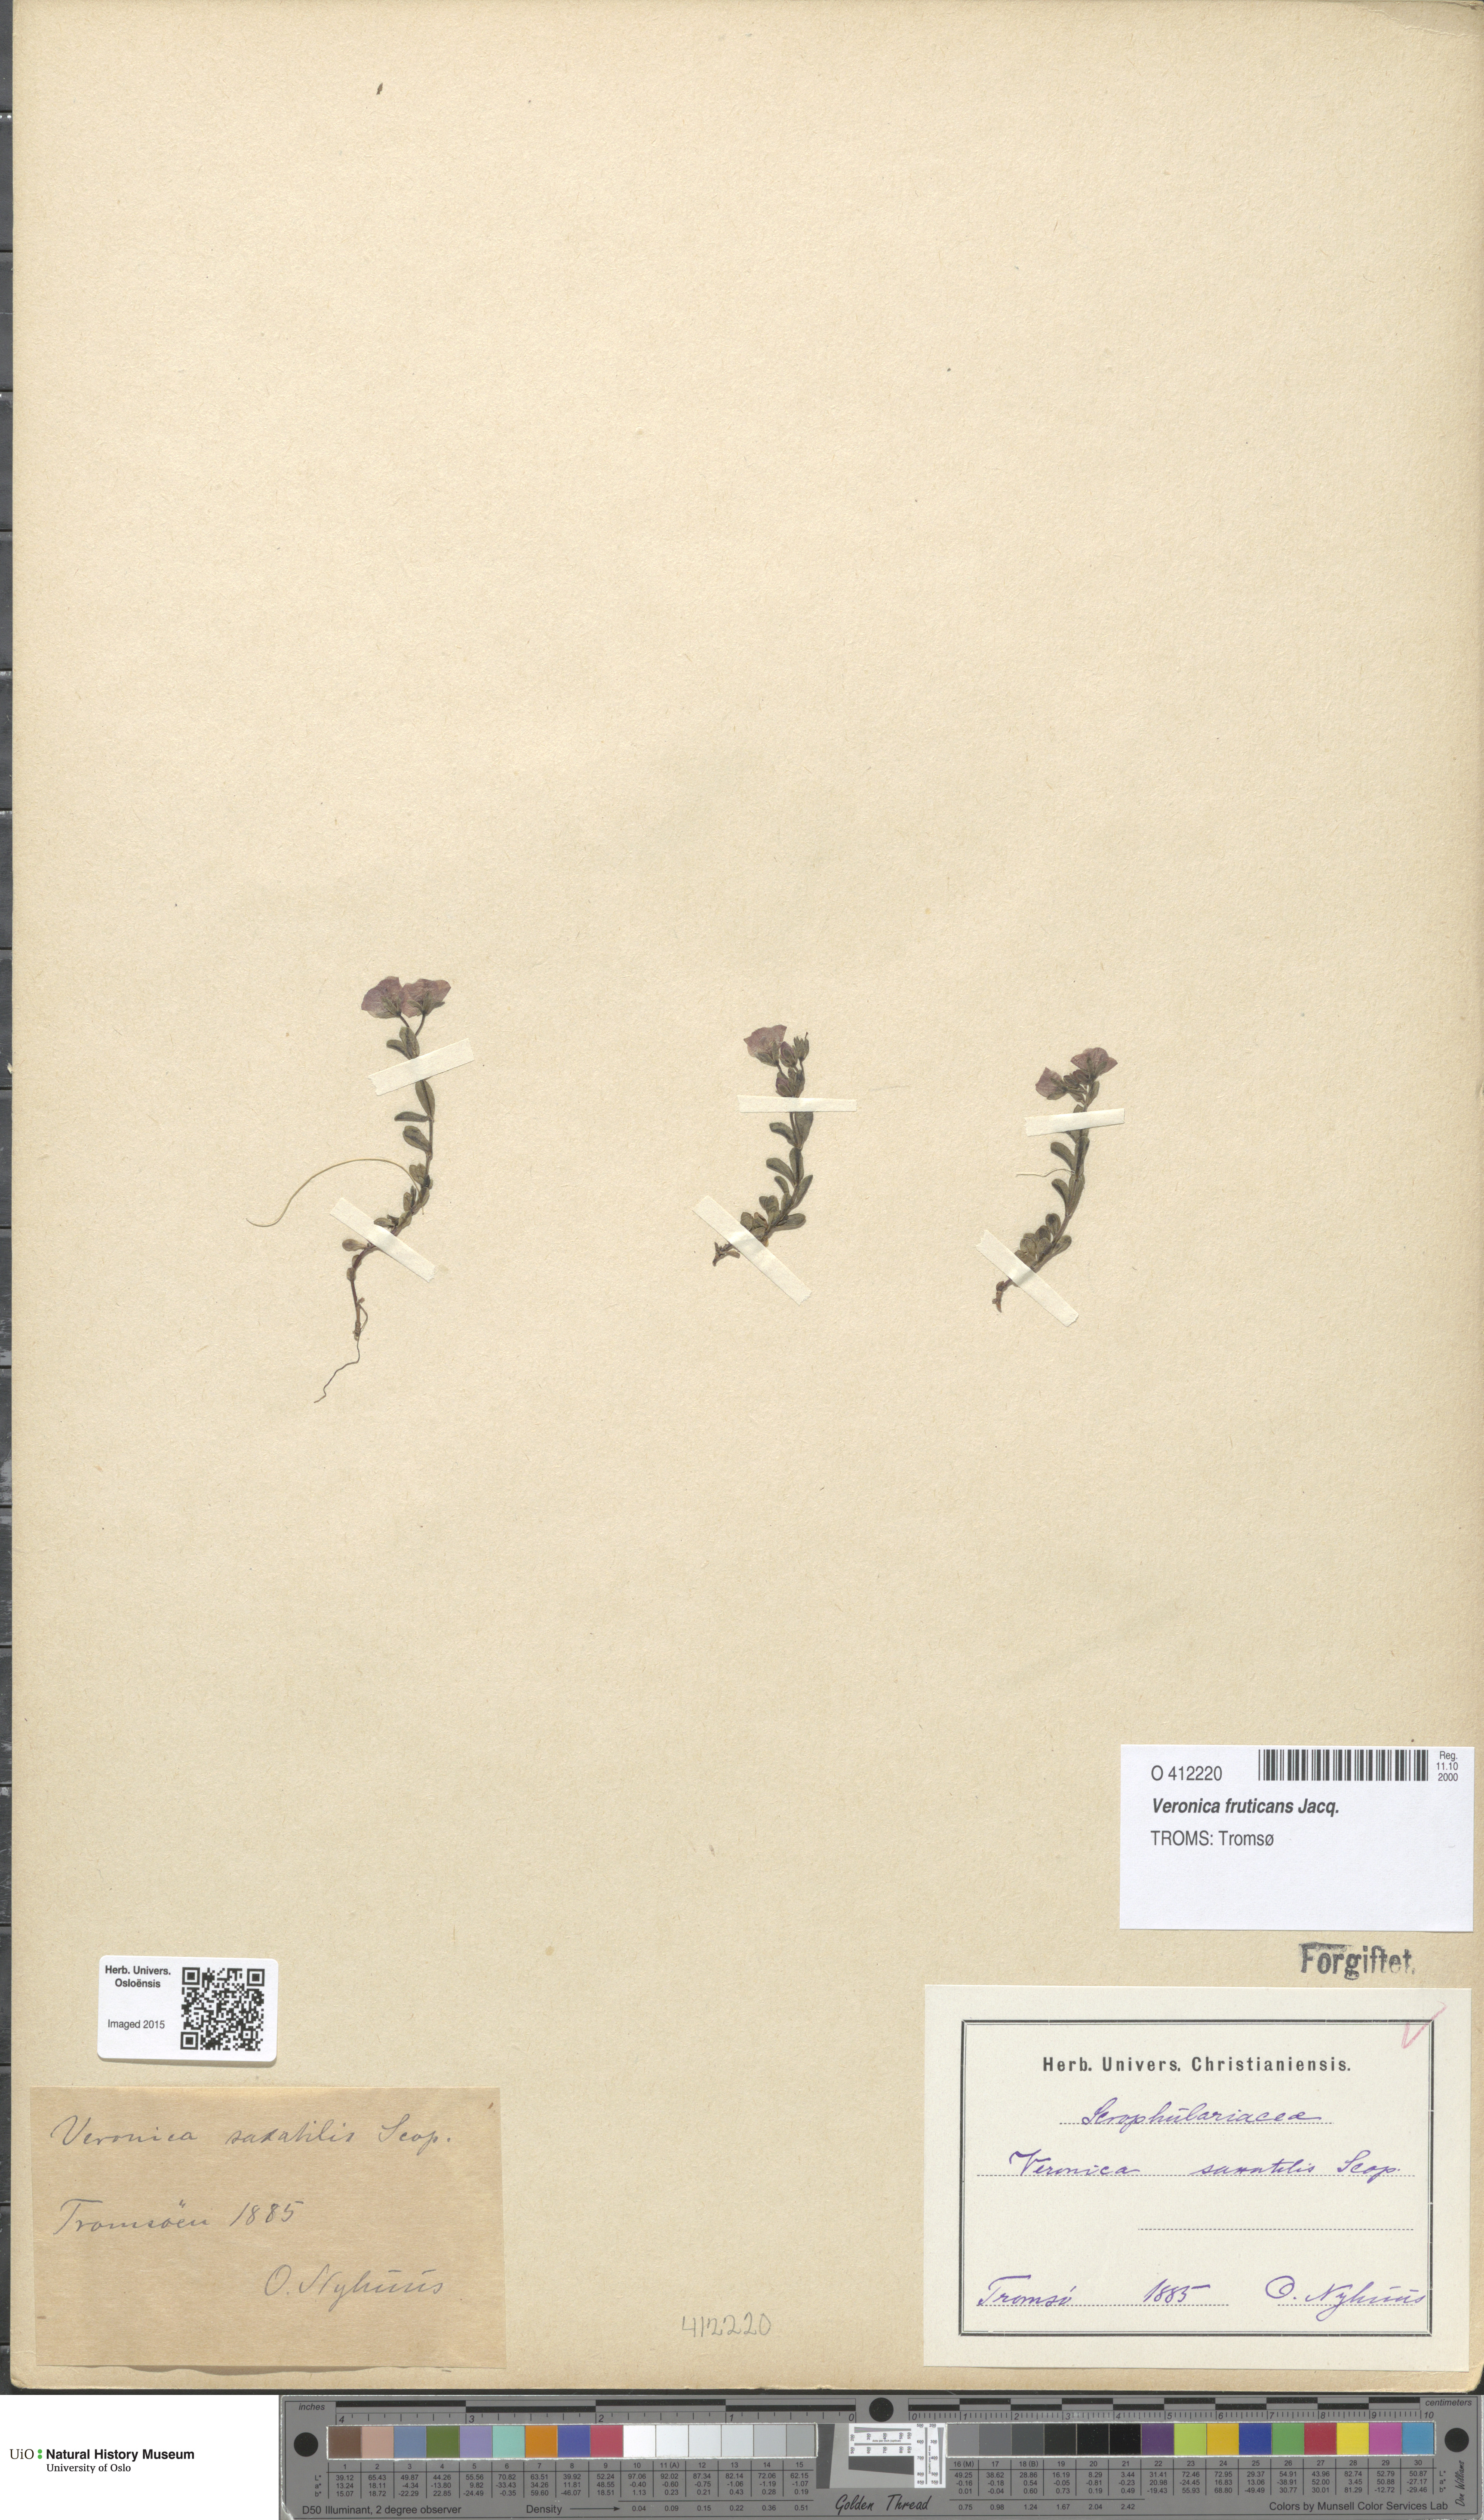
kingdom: Plantae
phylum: Tracheophyta
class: Magnoliopsida
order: Lamiales
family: Plantaginaceae
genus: Veronica
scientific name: Veronica fruticans
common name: Rock speedwell
